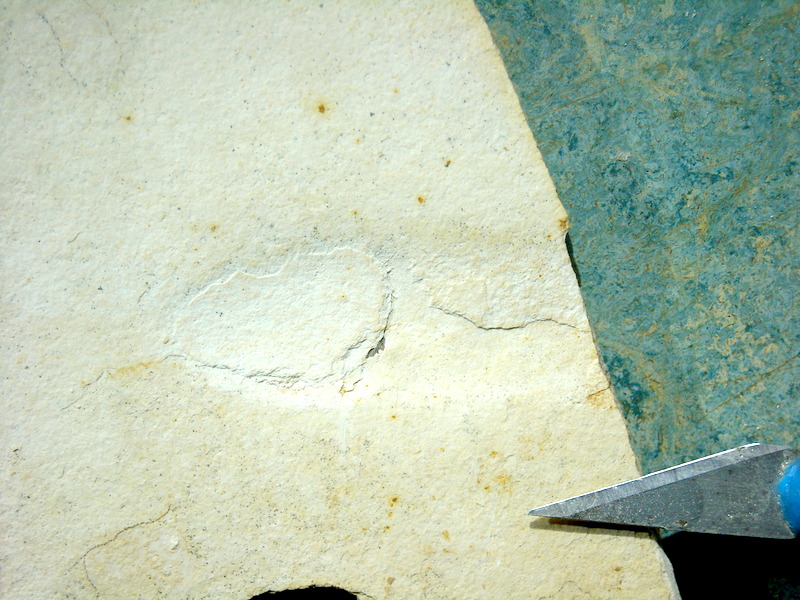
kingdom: Animalia
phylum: Chordata
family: Ascalaboidae
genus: Ebertichthys
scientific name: Ebertichthys ettlingensis
